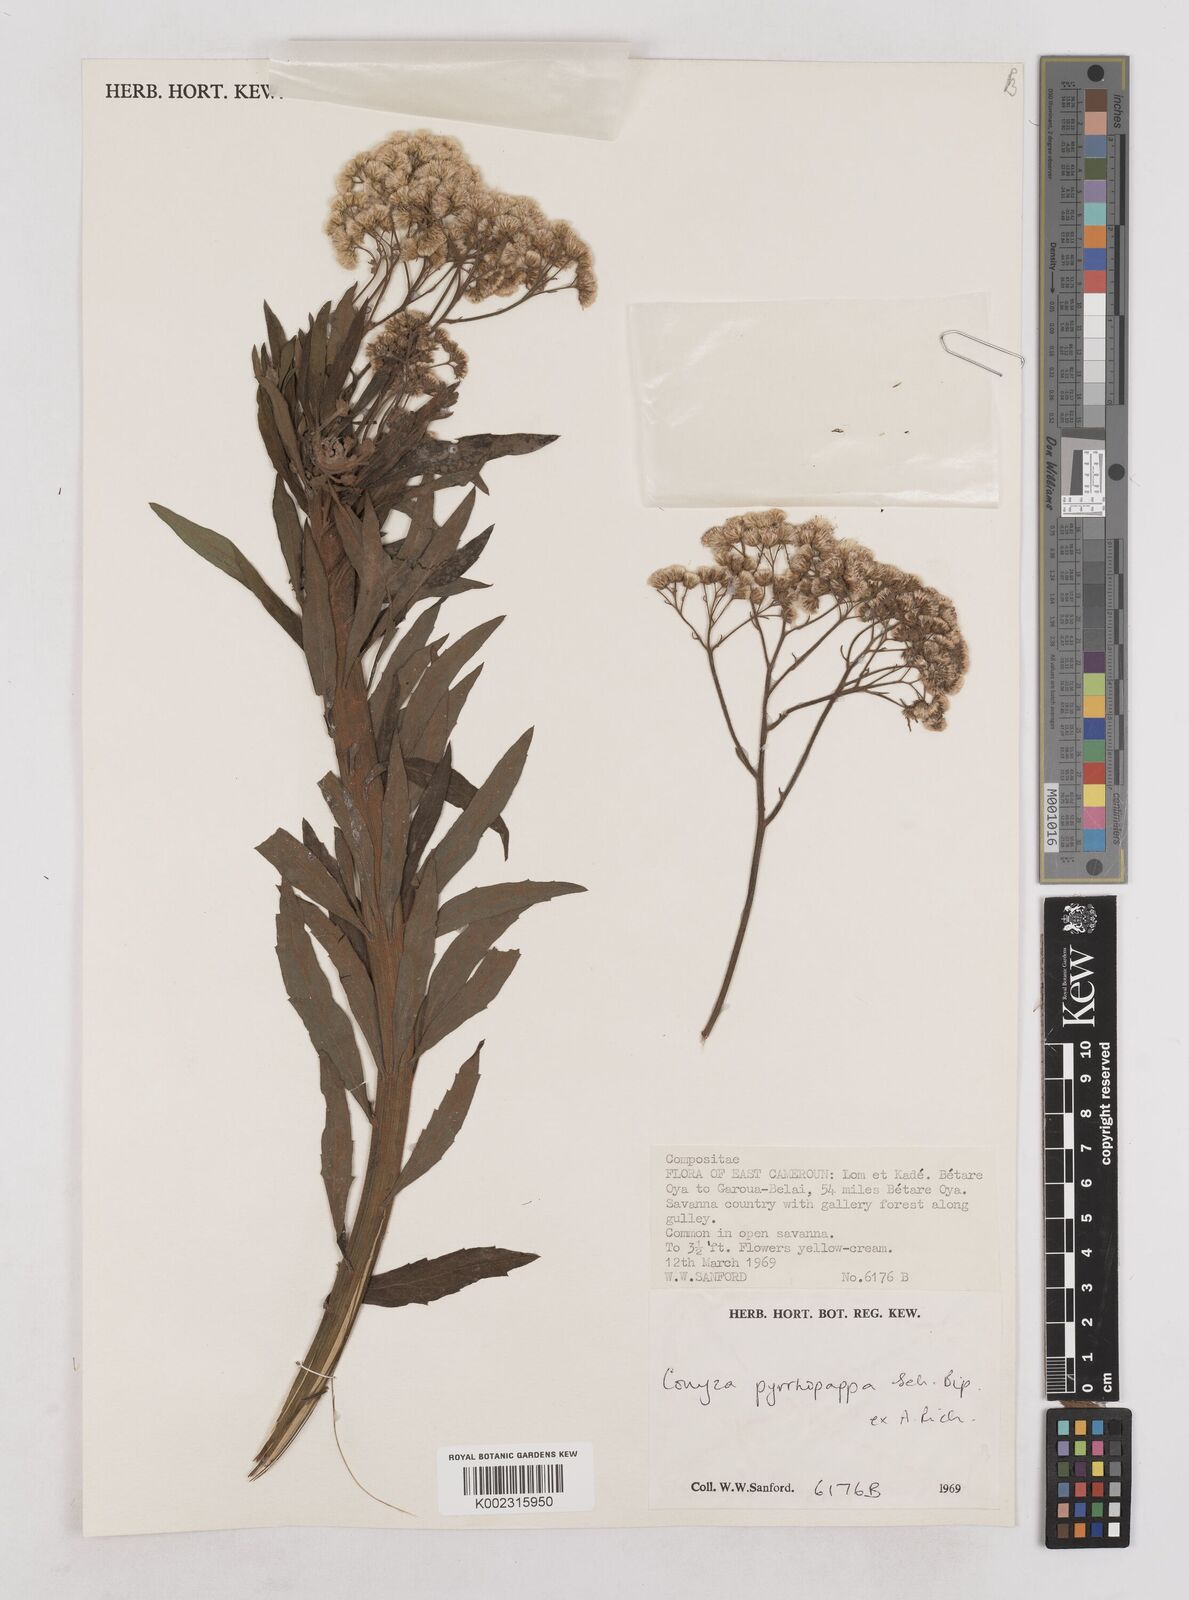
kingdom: Plantae
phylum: Tracheophyta
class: Magnoliopsida
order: Asterales
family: Asteraceae
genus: Microglossa
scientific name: Microglossa pyrrhopappa
